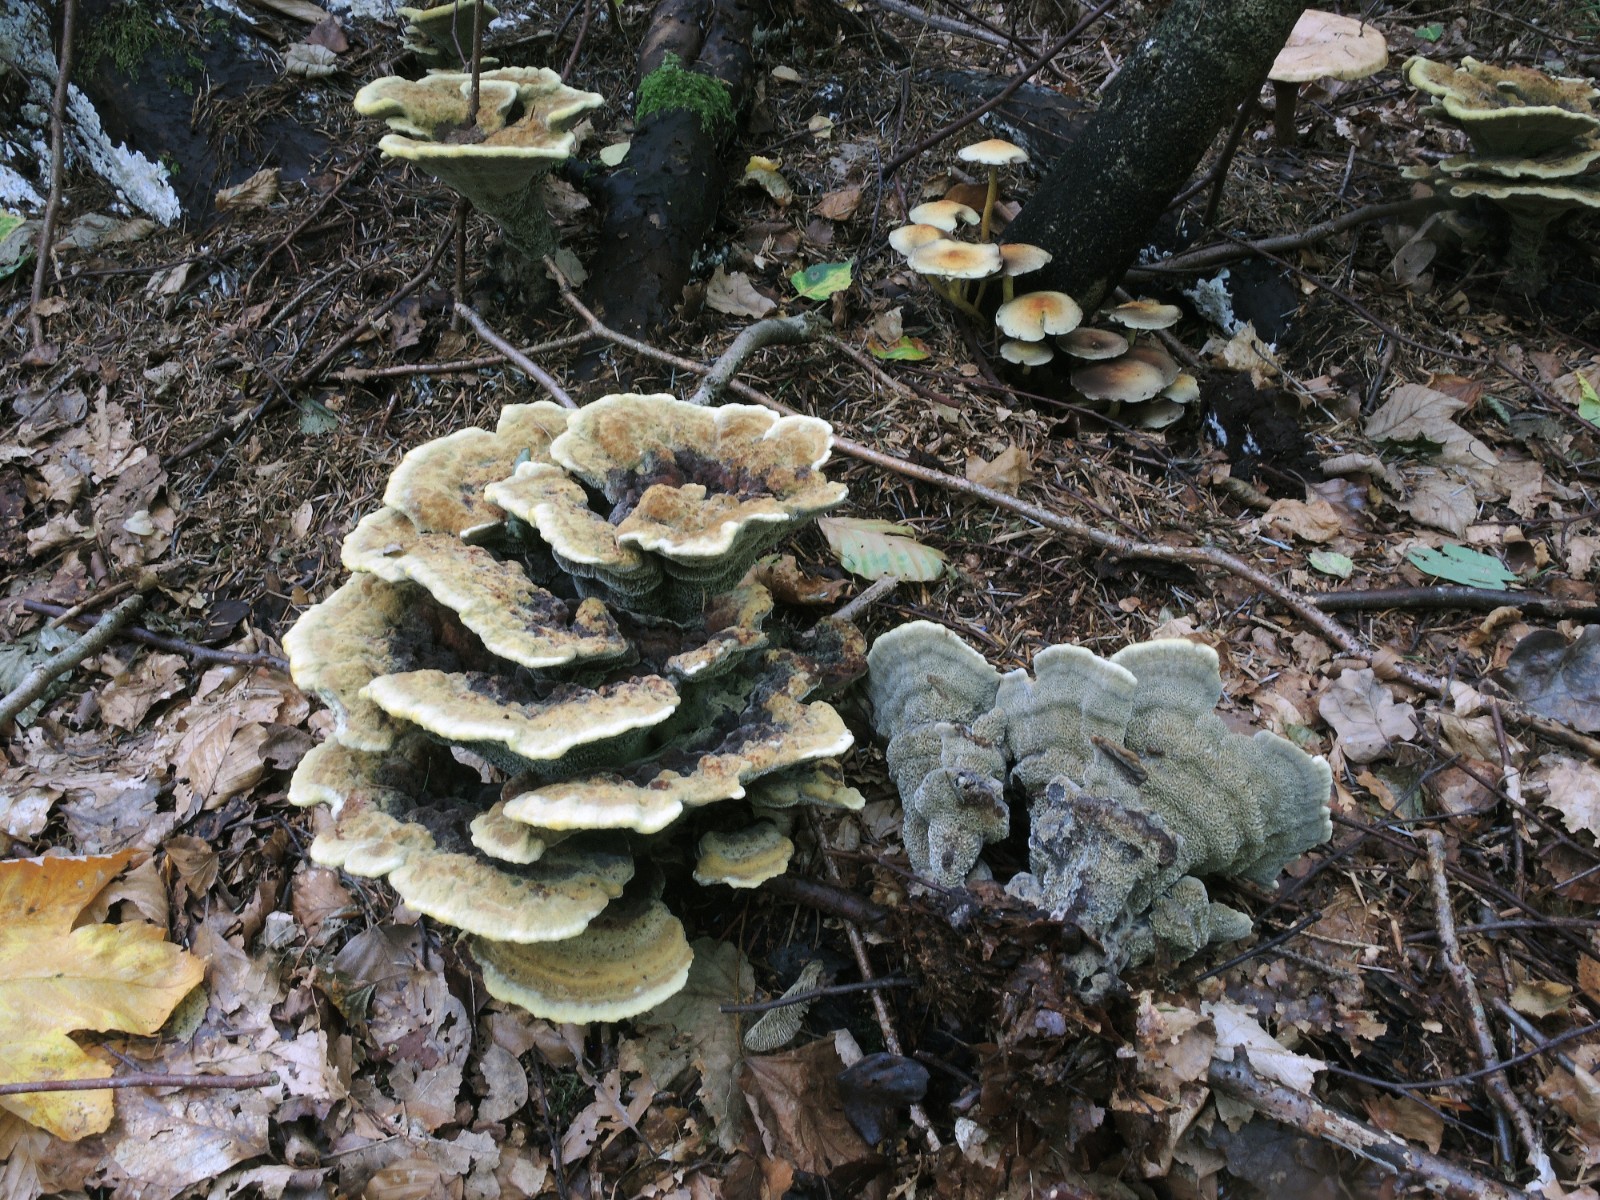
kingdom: Fungi
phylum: Basidiomycota
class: Agaricomycetes
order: Polyporales
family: Laetiporaceae
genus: Phaeolus
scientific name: Phaeolus schweinitzii
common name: brunporesvamp
